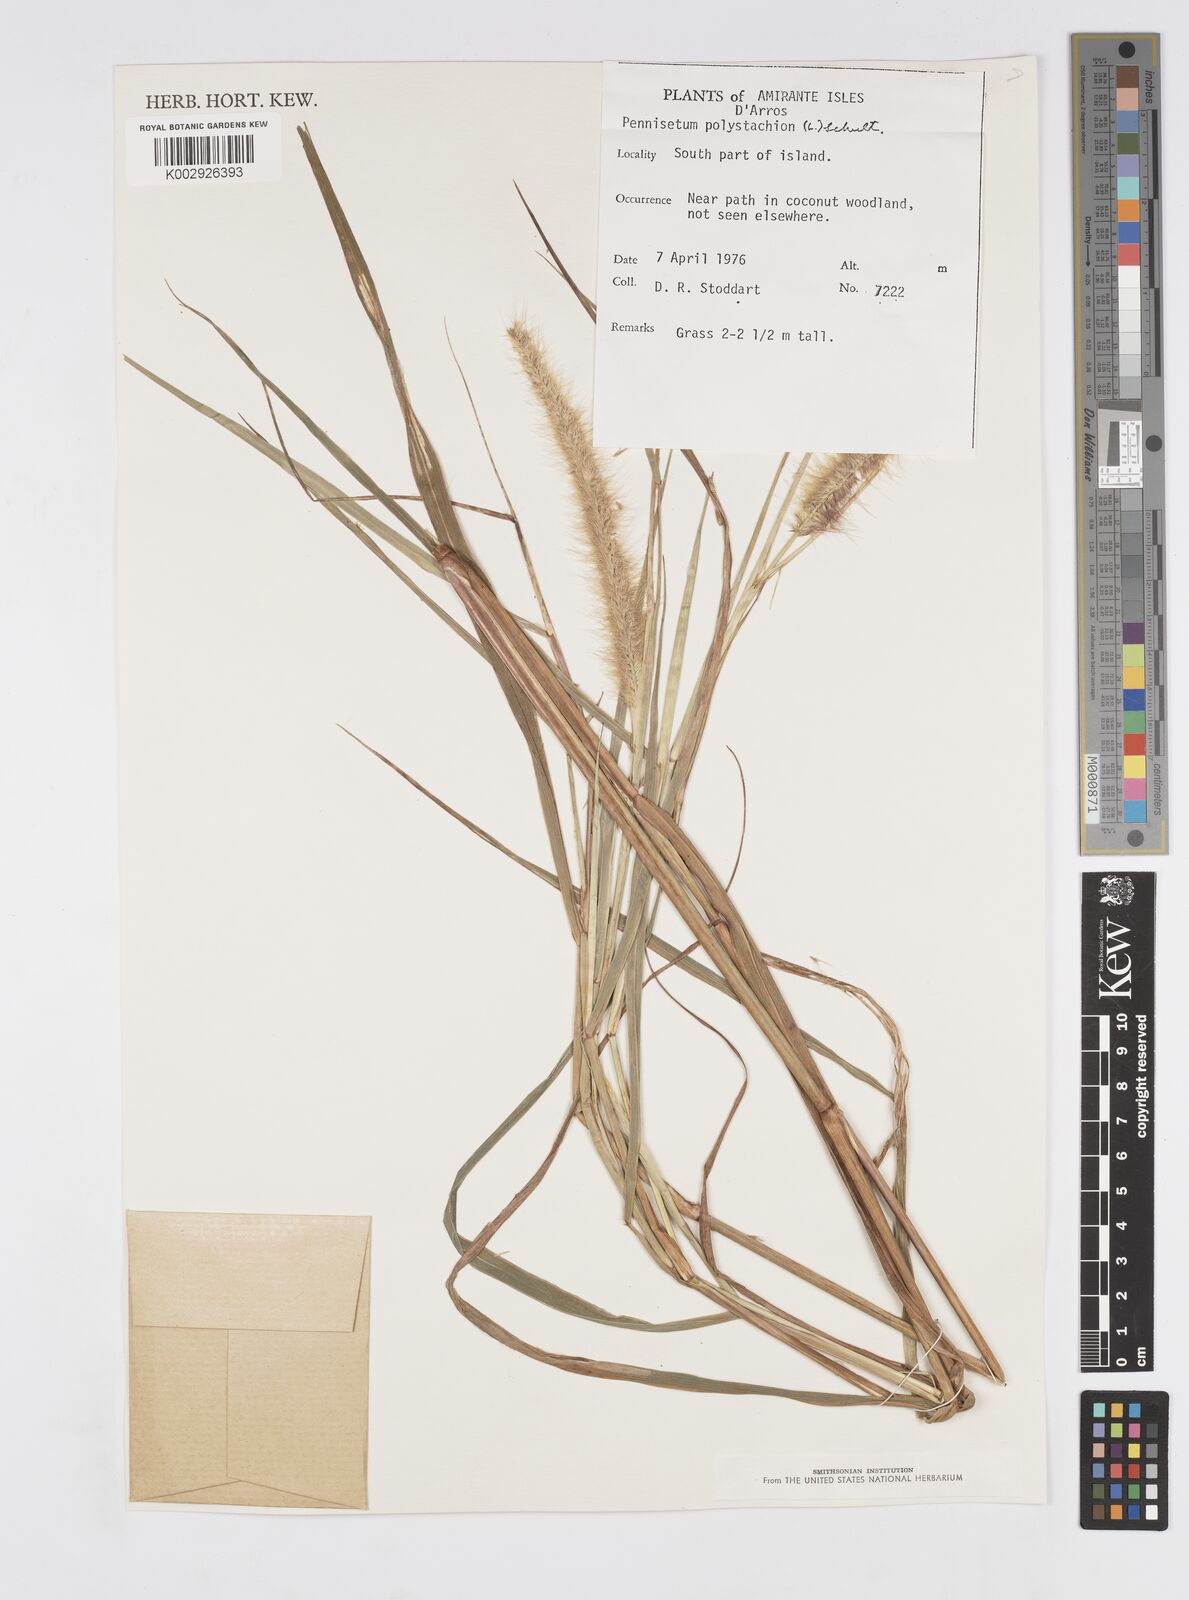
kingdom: Plantae
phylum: Tracheophyta
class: Liliopsida
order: Poales
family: Poaceae
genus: Setaria
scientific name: Setaria parviflora
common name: Knotroot bristle-grass
